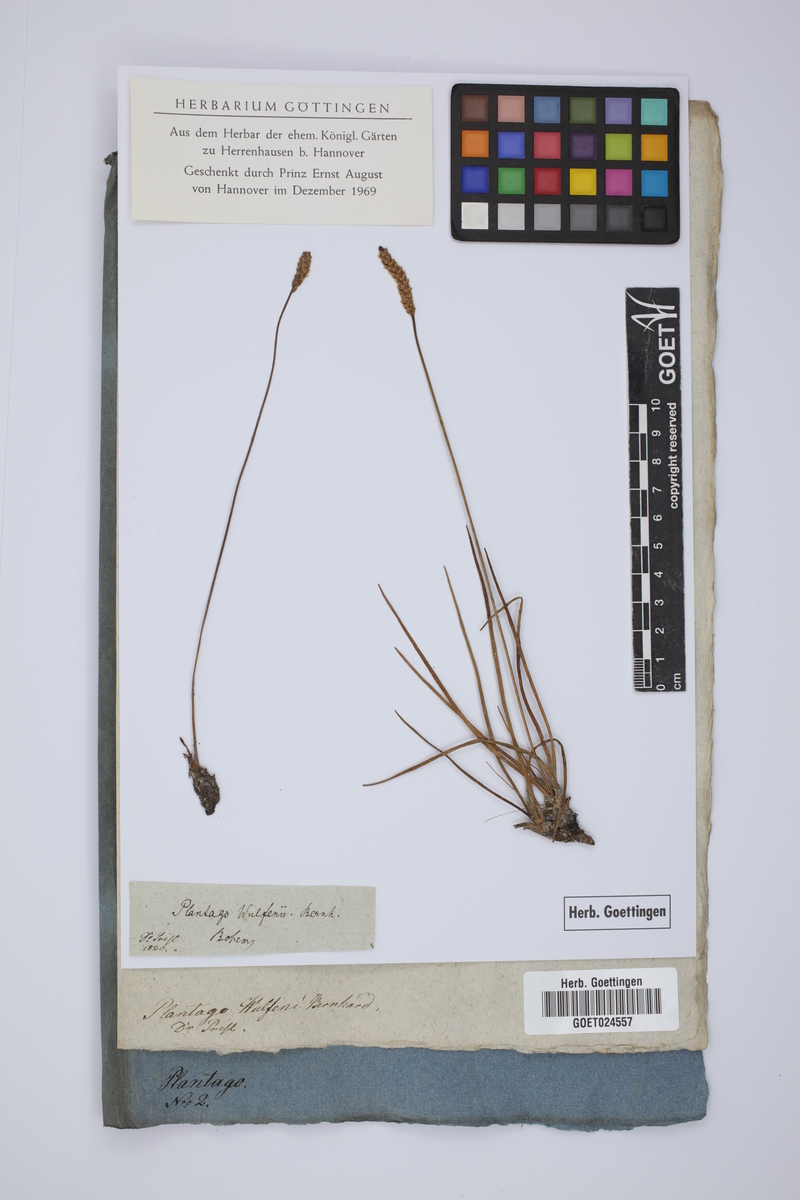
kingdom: Plantae
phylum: Tracheophyta
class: Magnoliopsida
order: Lamiales
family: Plantaginaceae
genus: Plantago
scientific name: Plantago maritima
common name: Sea plantain
